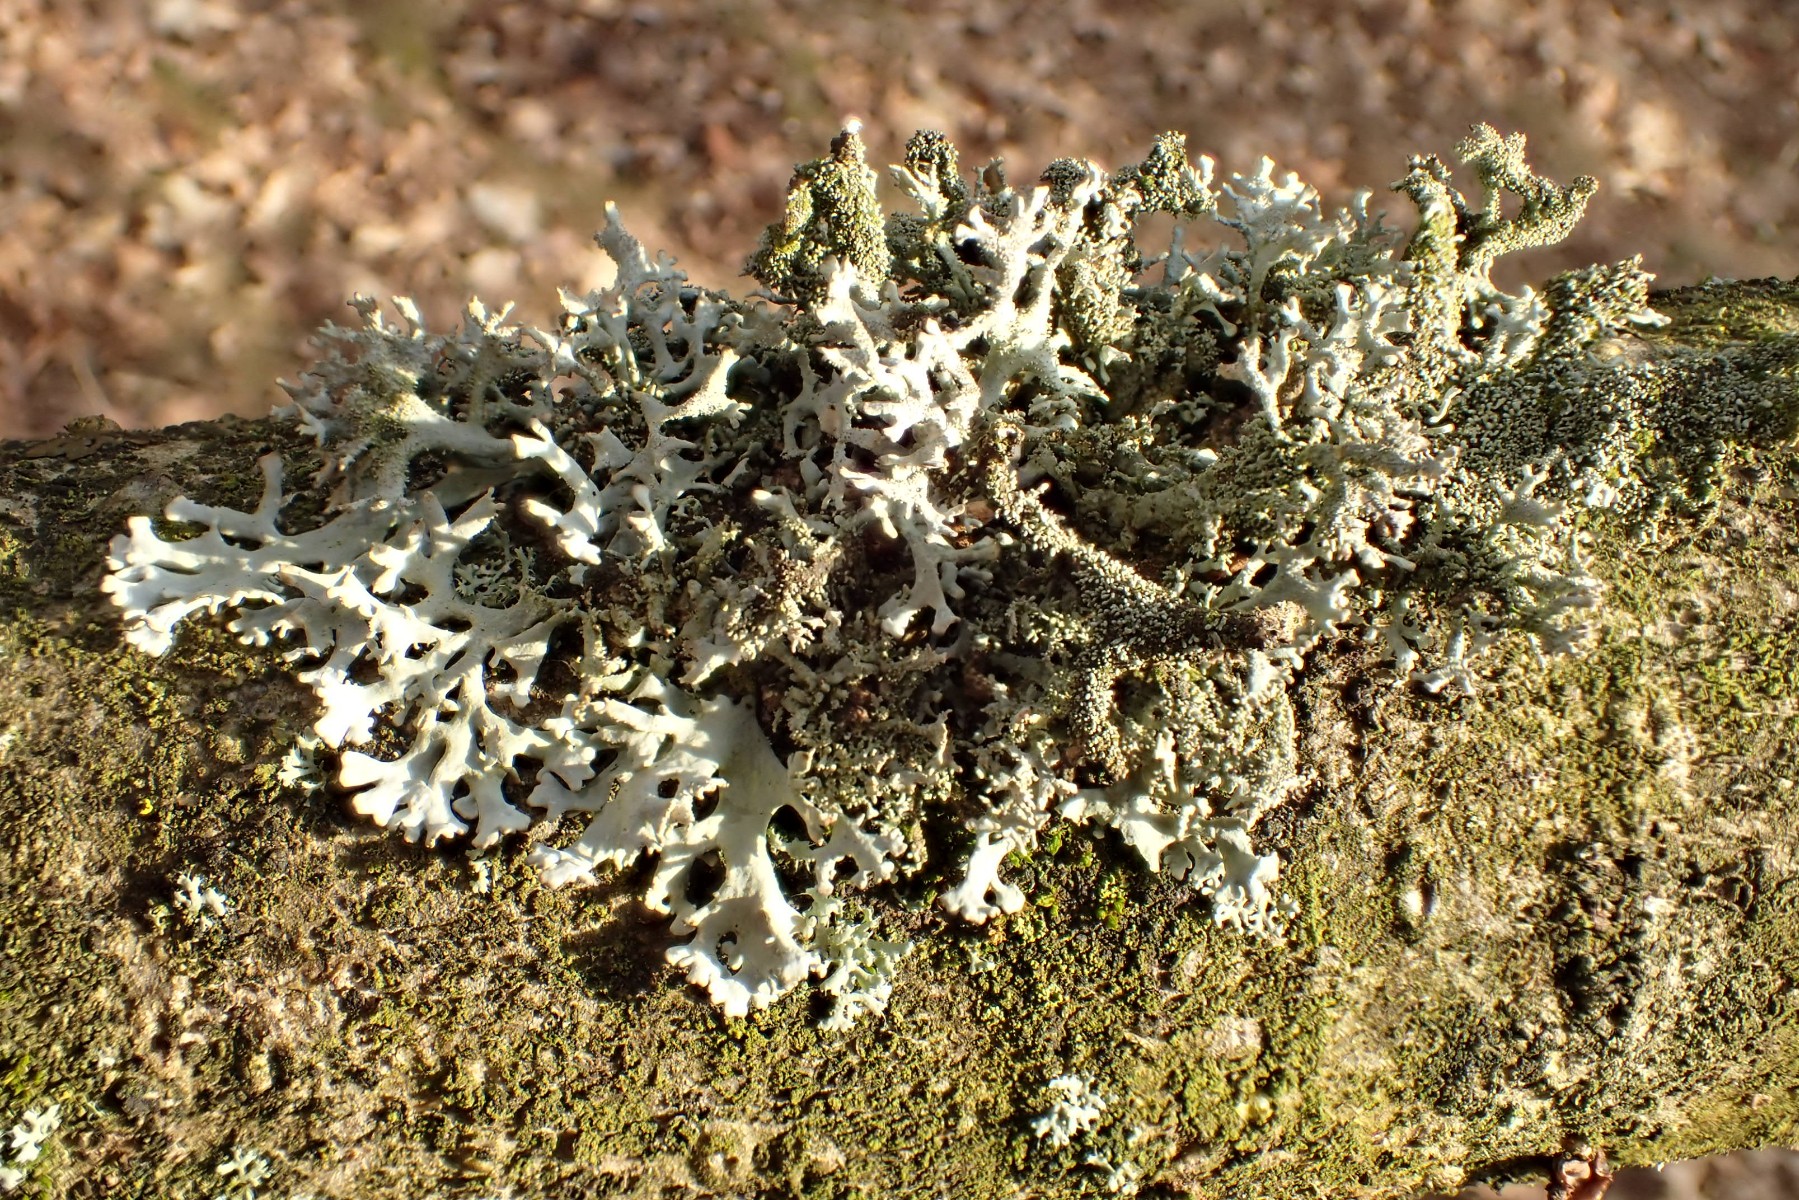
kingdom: Fungi
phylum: Ascomycota
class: Lecanoromycetes
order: Lecanorales
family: Parmeliaceae
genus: Pseudevernia
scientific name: Pseudevernia furfuracea
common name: grå fyrrelav
